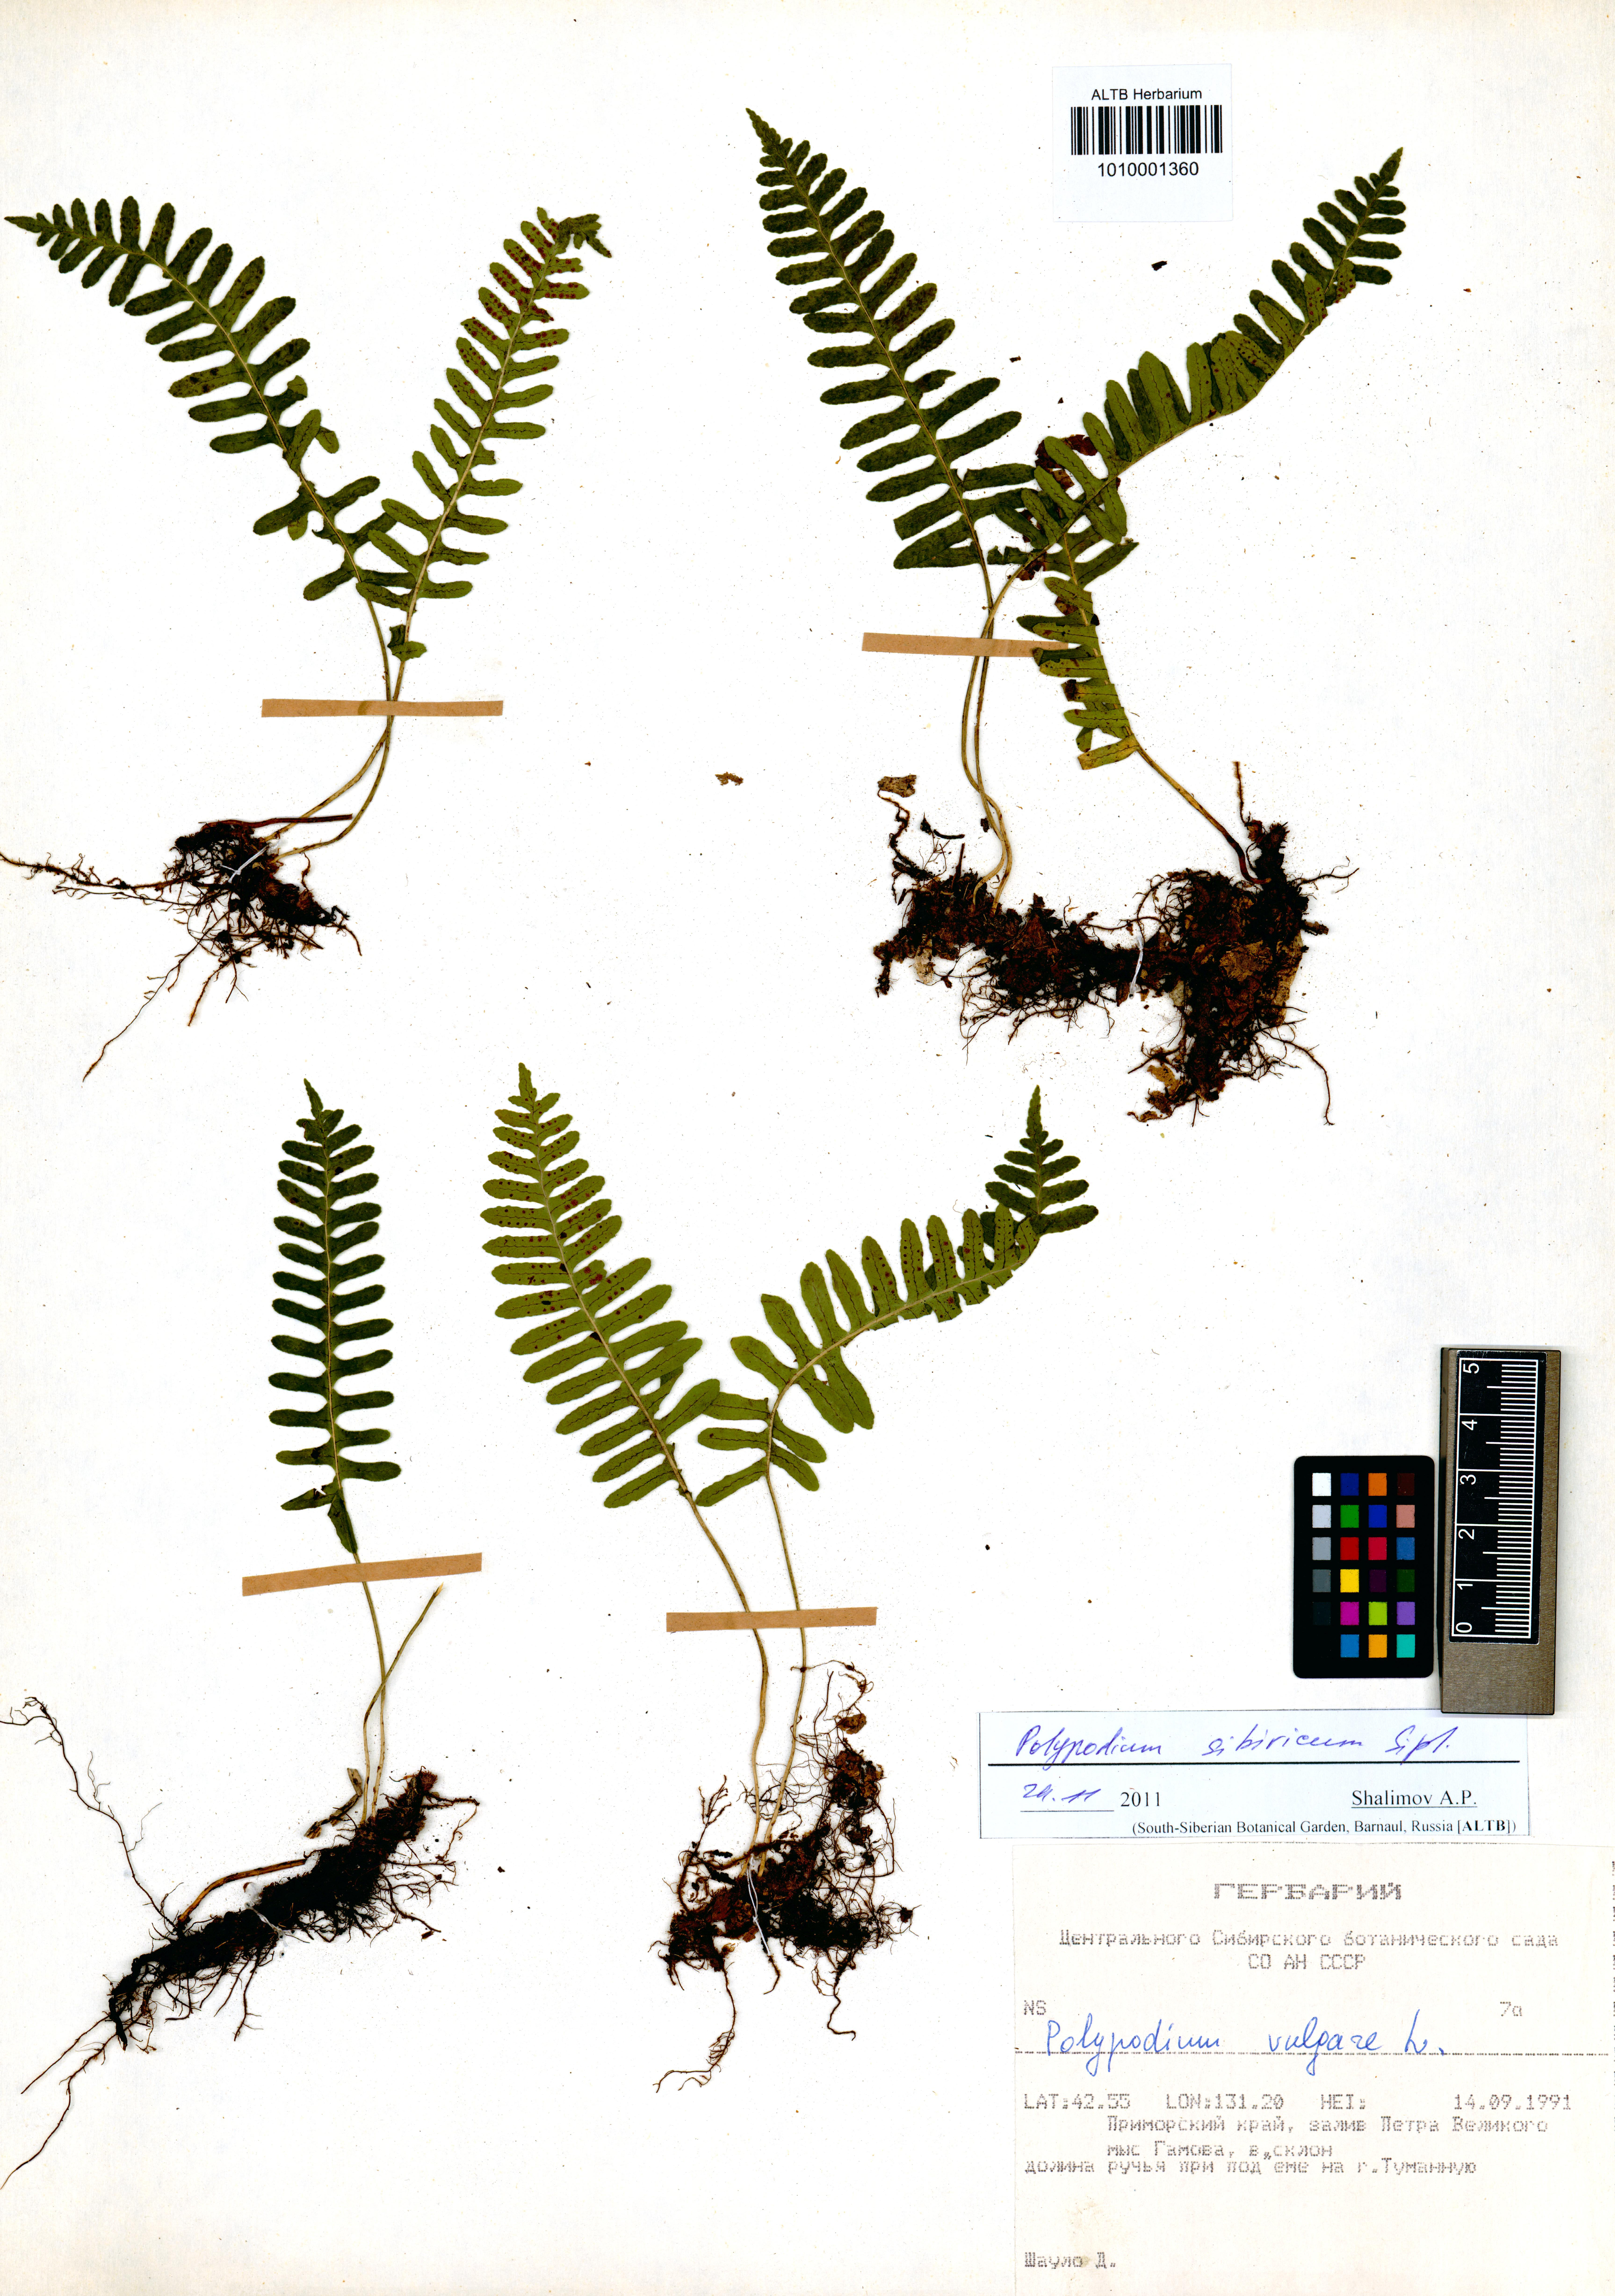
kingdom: Plantae
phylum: Tracheophyta
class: Polypodiopsida
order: Polypodiales
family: Polypodiaceae
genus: Polypodium
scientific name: Polypodium sibiricum
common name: Siberian polypody
